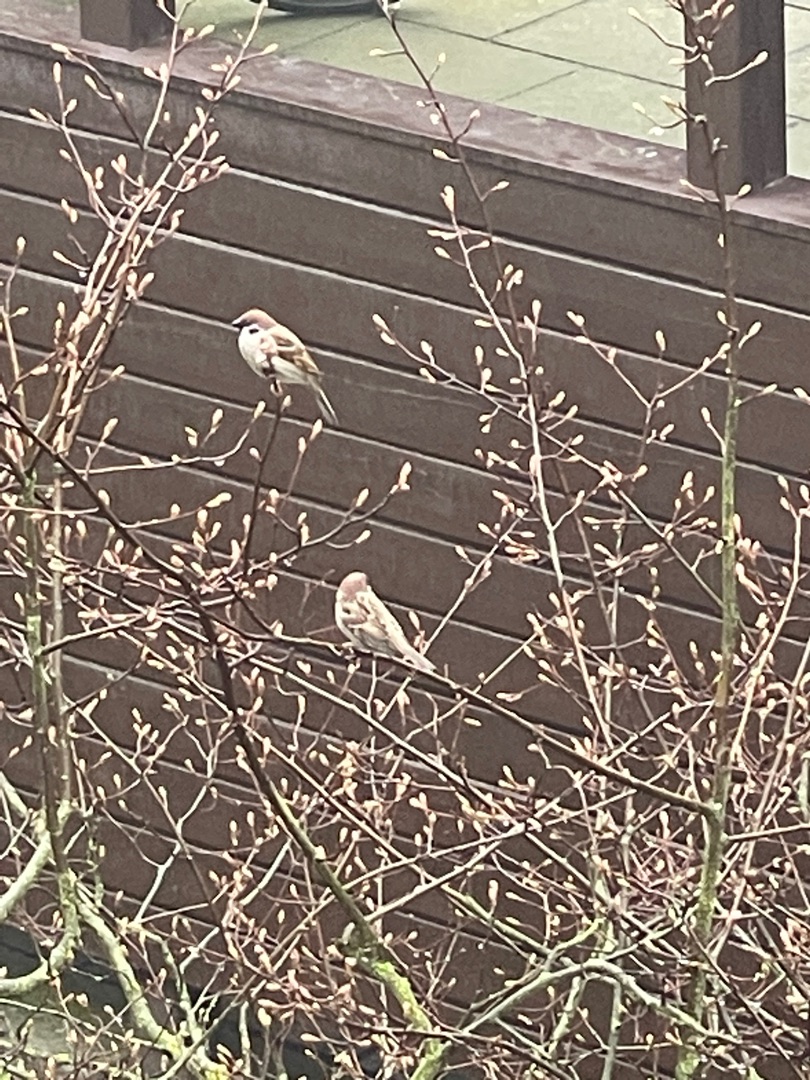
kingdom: Animalia
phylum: Chordata
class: Aves
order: Passeriformes
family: Passeridae
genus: Passer
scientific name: Passer montanus
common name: Skovspurv
